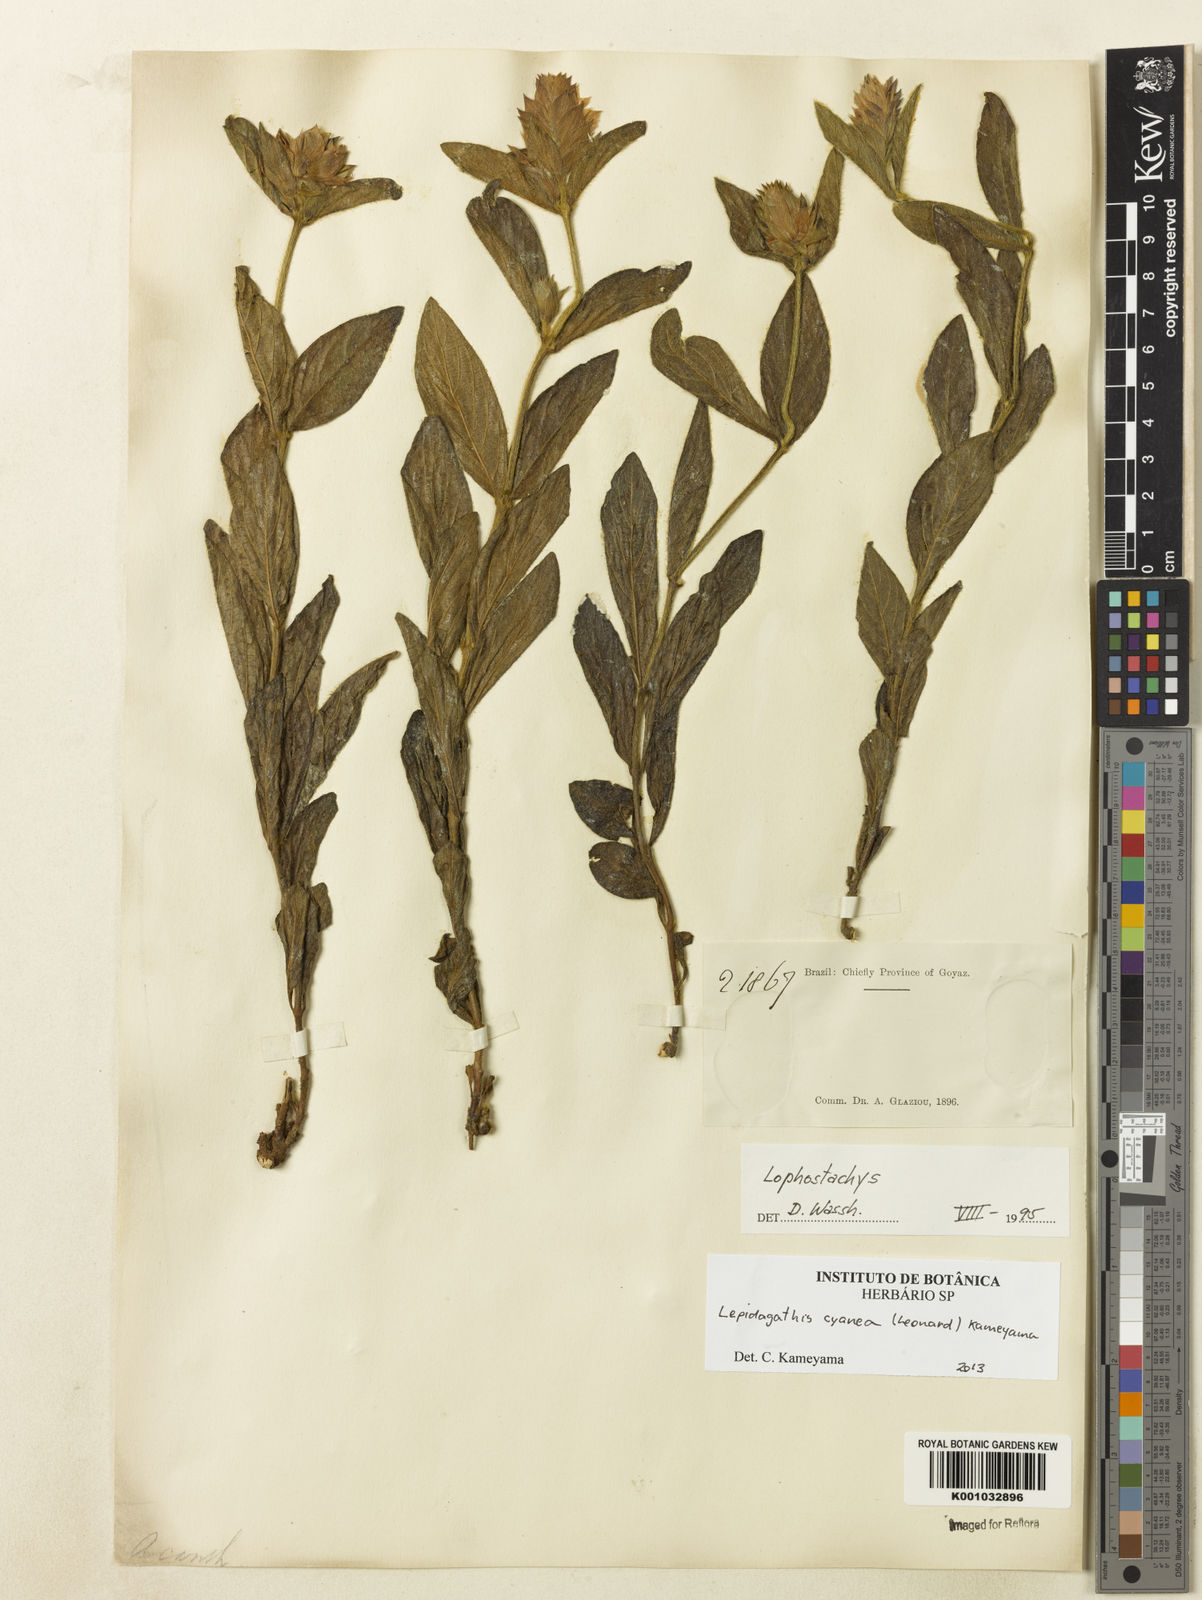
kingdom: Plantae
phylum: Tracheophyta
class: Magnoliopsida
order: Lamiales
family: Acanthaceae
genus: Lepidagathis
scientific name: Lepidagathis cyanea
